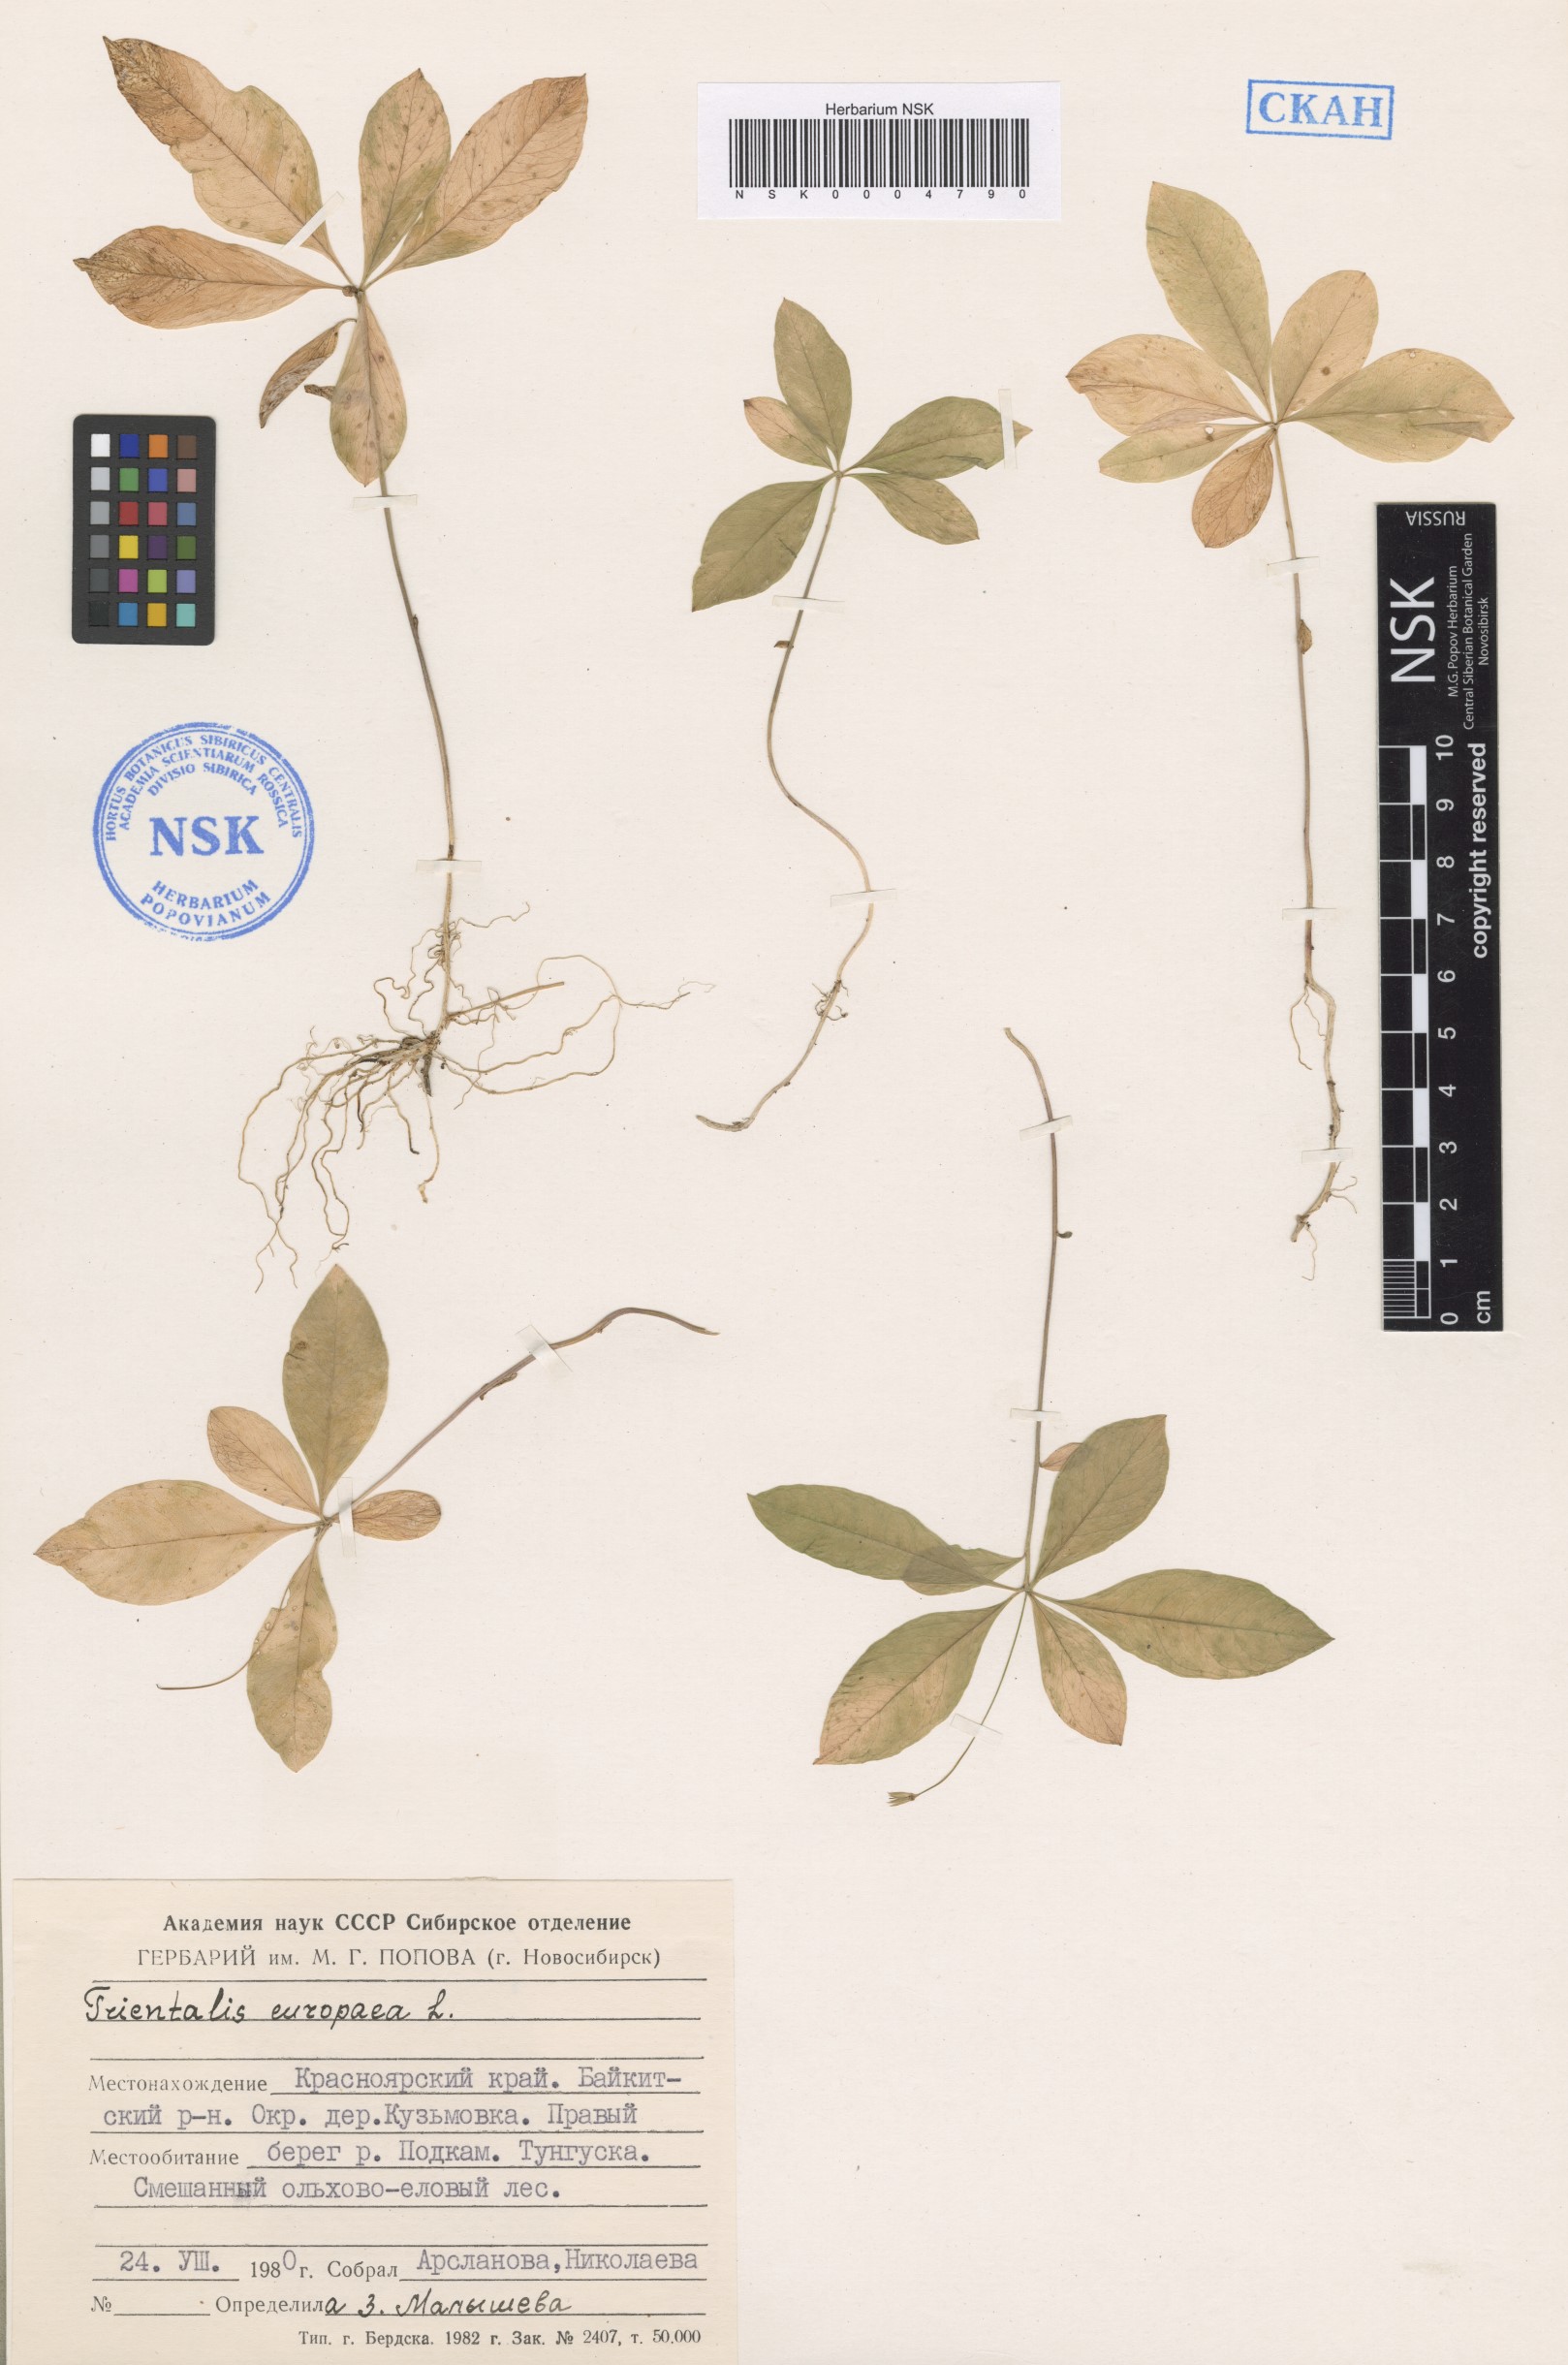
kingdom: Plantae
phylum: Tracheophyta
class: Magnoliopsida
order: Ericales
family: Primulaceae
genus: Lysimachia
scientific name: Lysimachia europaea
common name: Arctic starflower
